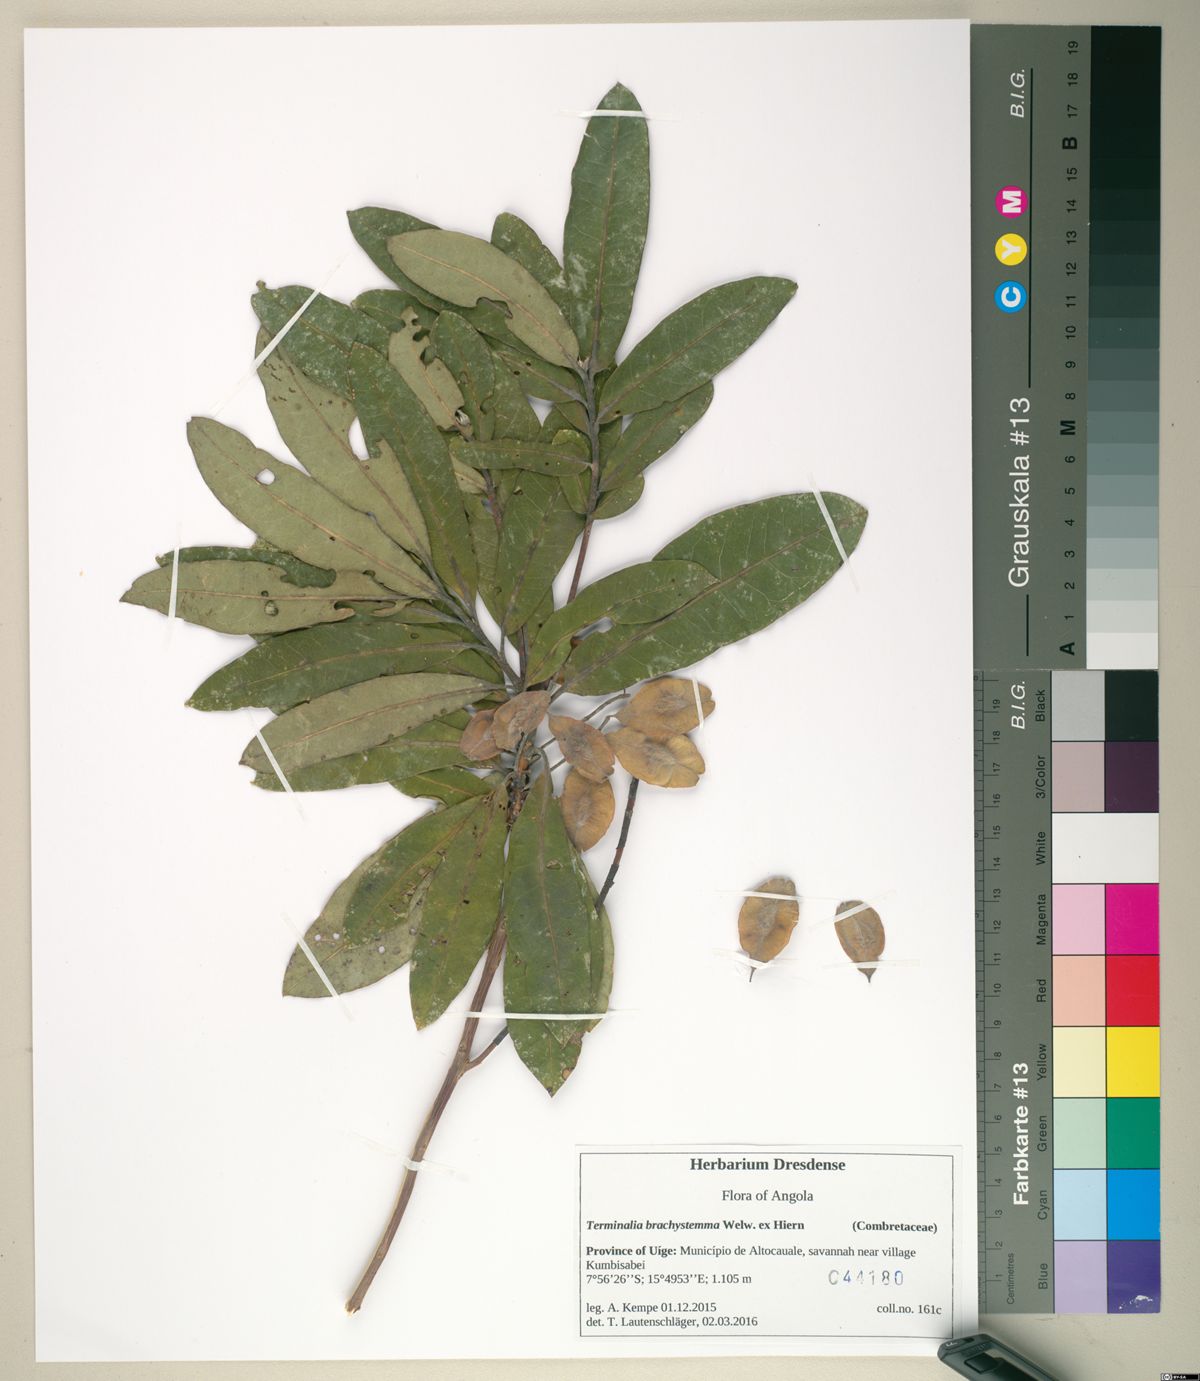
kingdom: Plantae
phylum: Tracheophyta
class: Magnoliopsida
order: Myrtales
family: Combretaceae
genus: Terminalia
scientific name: Terminalia brachystemma
